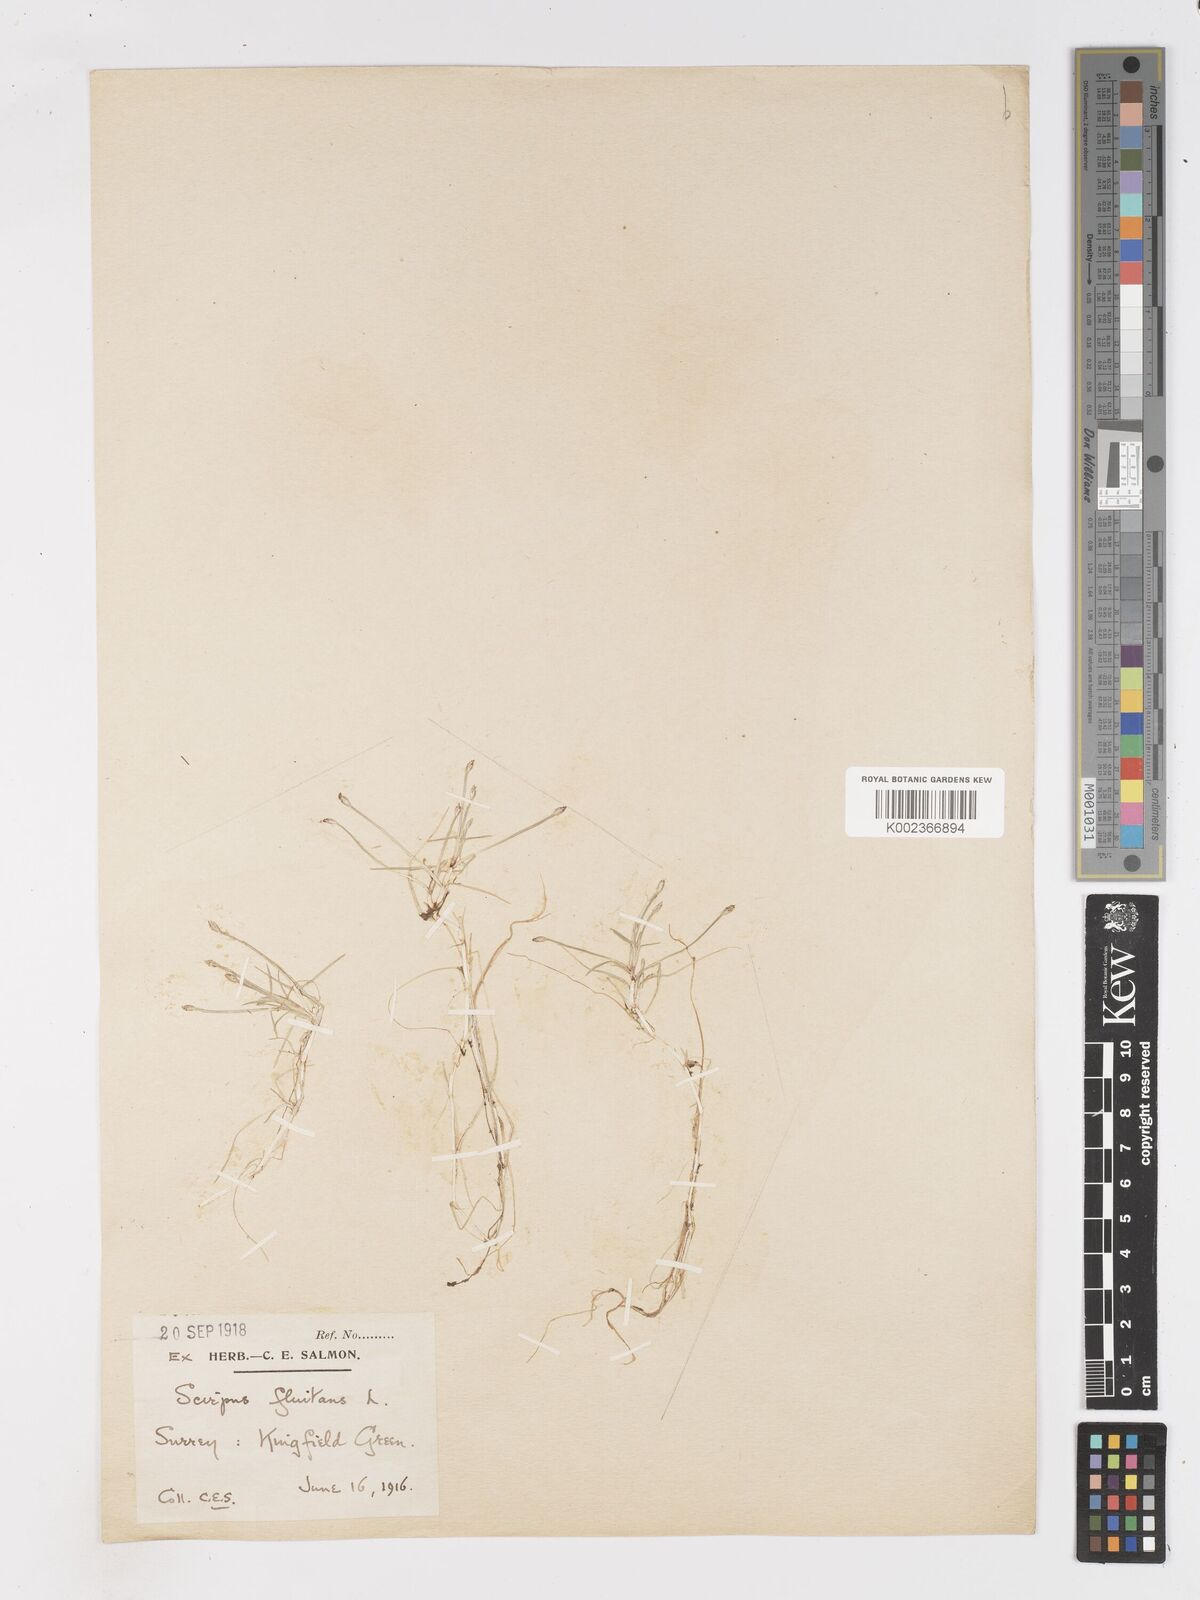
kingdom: Plantae
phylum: Tracheophyta
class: Liliopsida
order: Poales
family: Cyperaceae
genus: Isolepis
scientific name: Isolepis fluitans
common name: Floating club-rush
